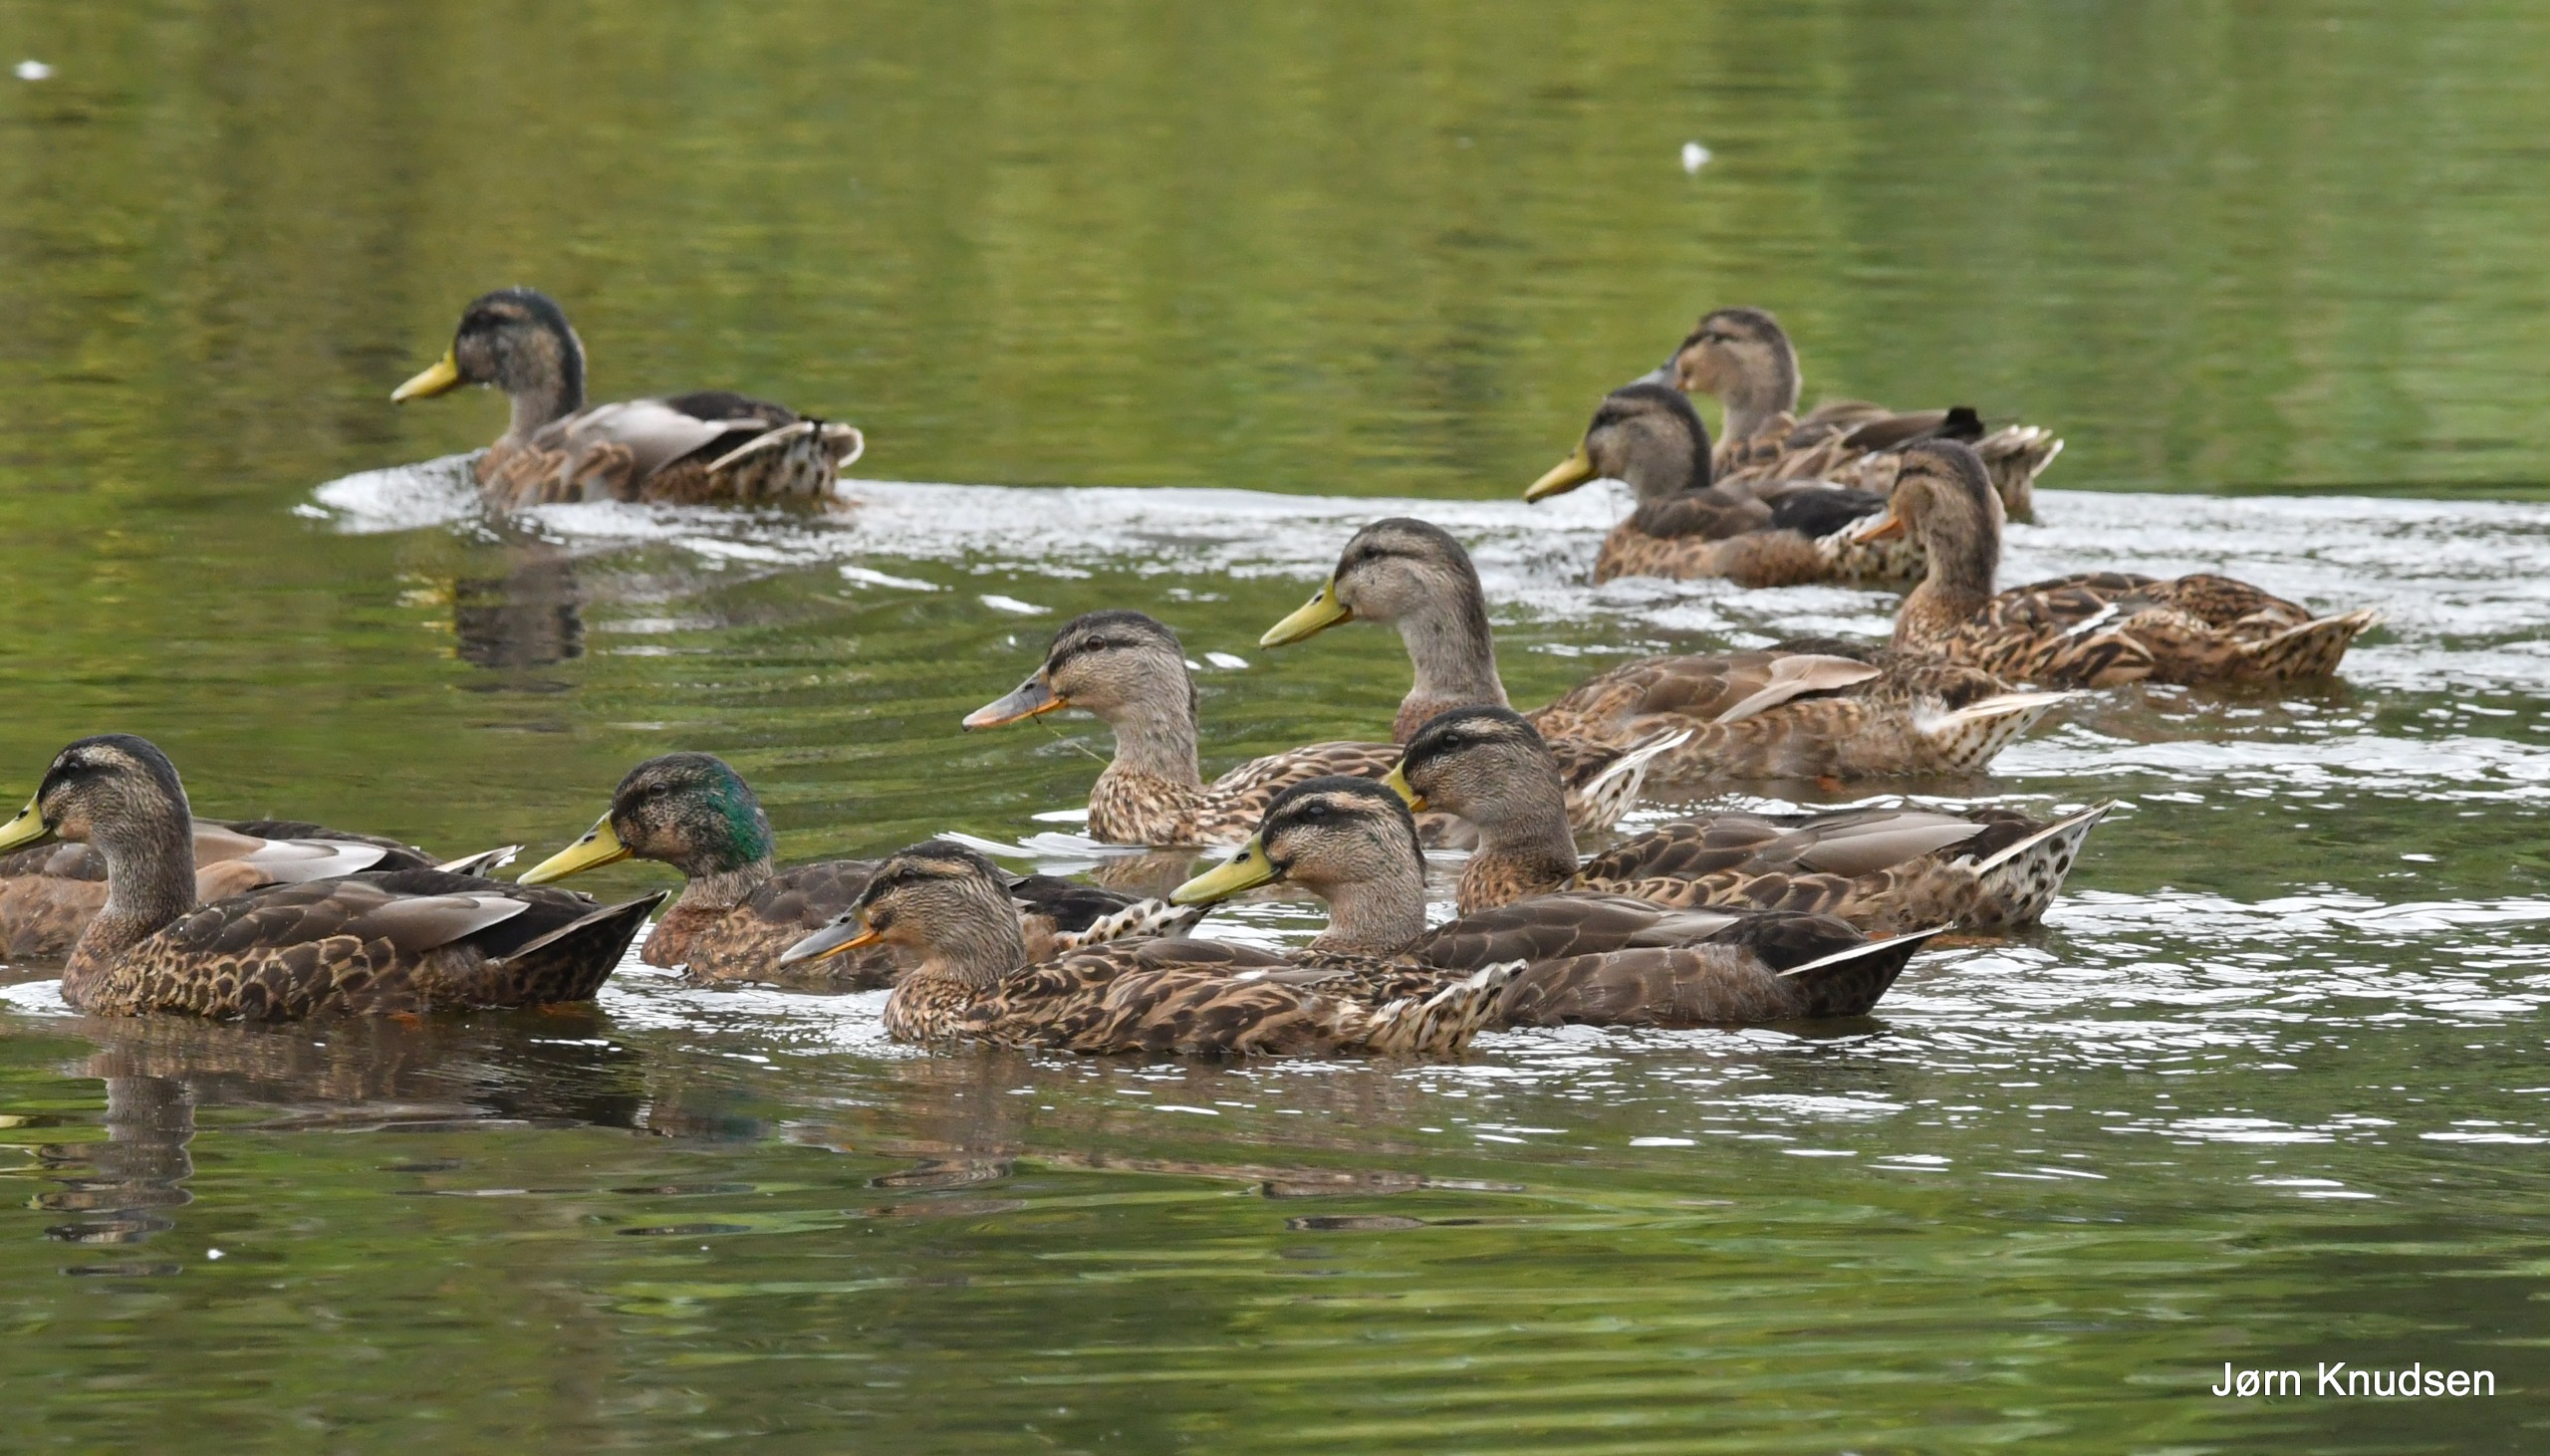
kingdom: Animalia
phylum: Chordata
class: Aves
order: Anseriformes
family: Anatidae
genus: Anas
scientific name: Anas platyrhynchos
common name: Gråand
